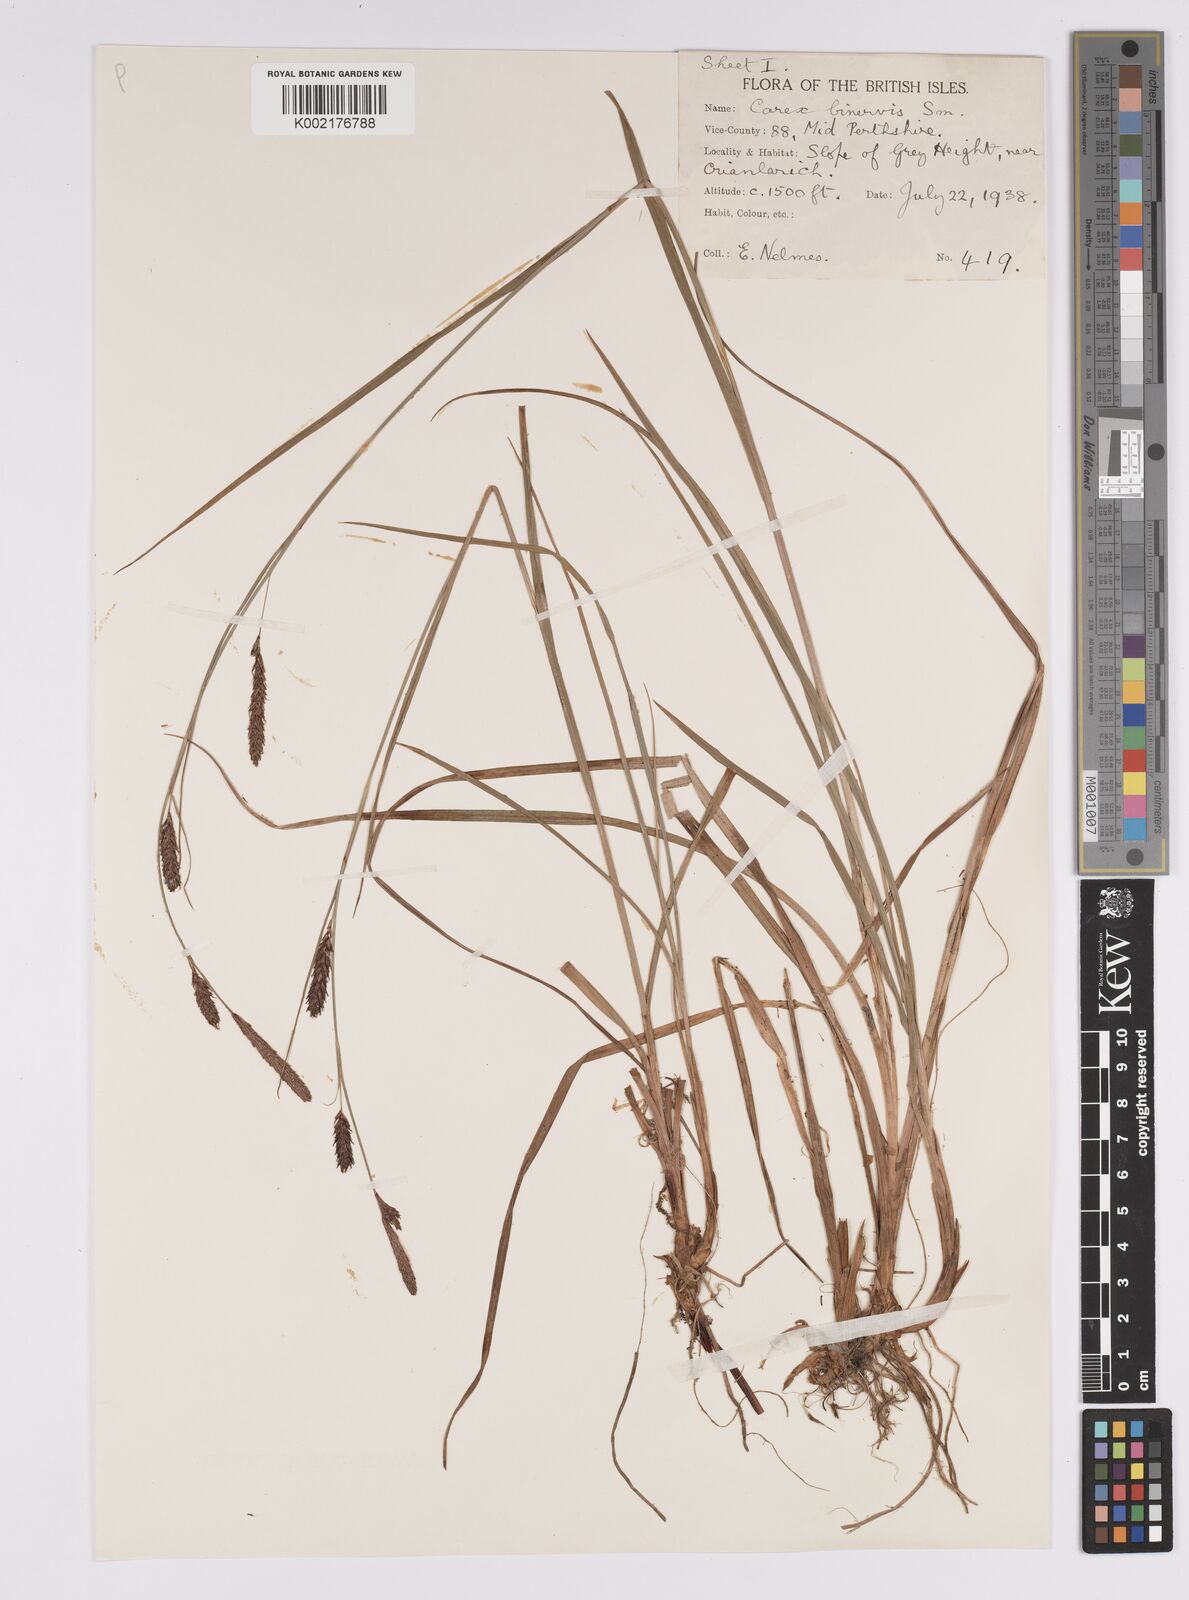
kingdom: Plantae
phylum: Tracheophyta
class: Liliopsida
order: Poales
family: Cyperaceae
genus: Carex
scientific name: Carex binervis
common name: Green-ribbed sedge
